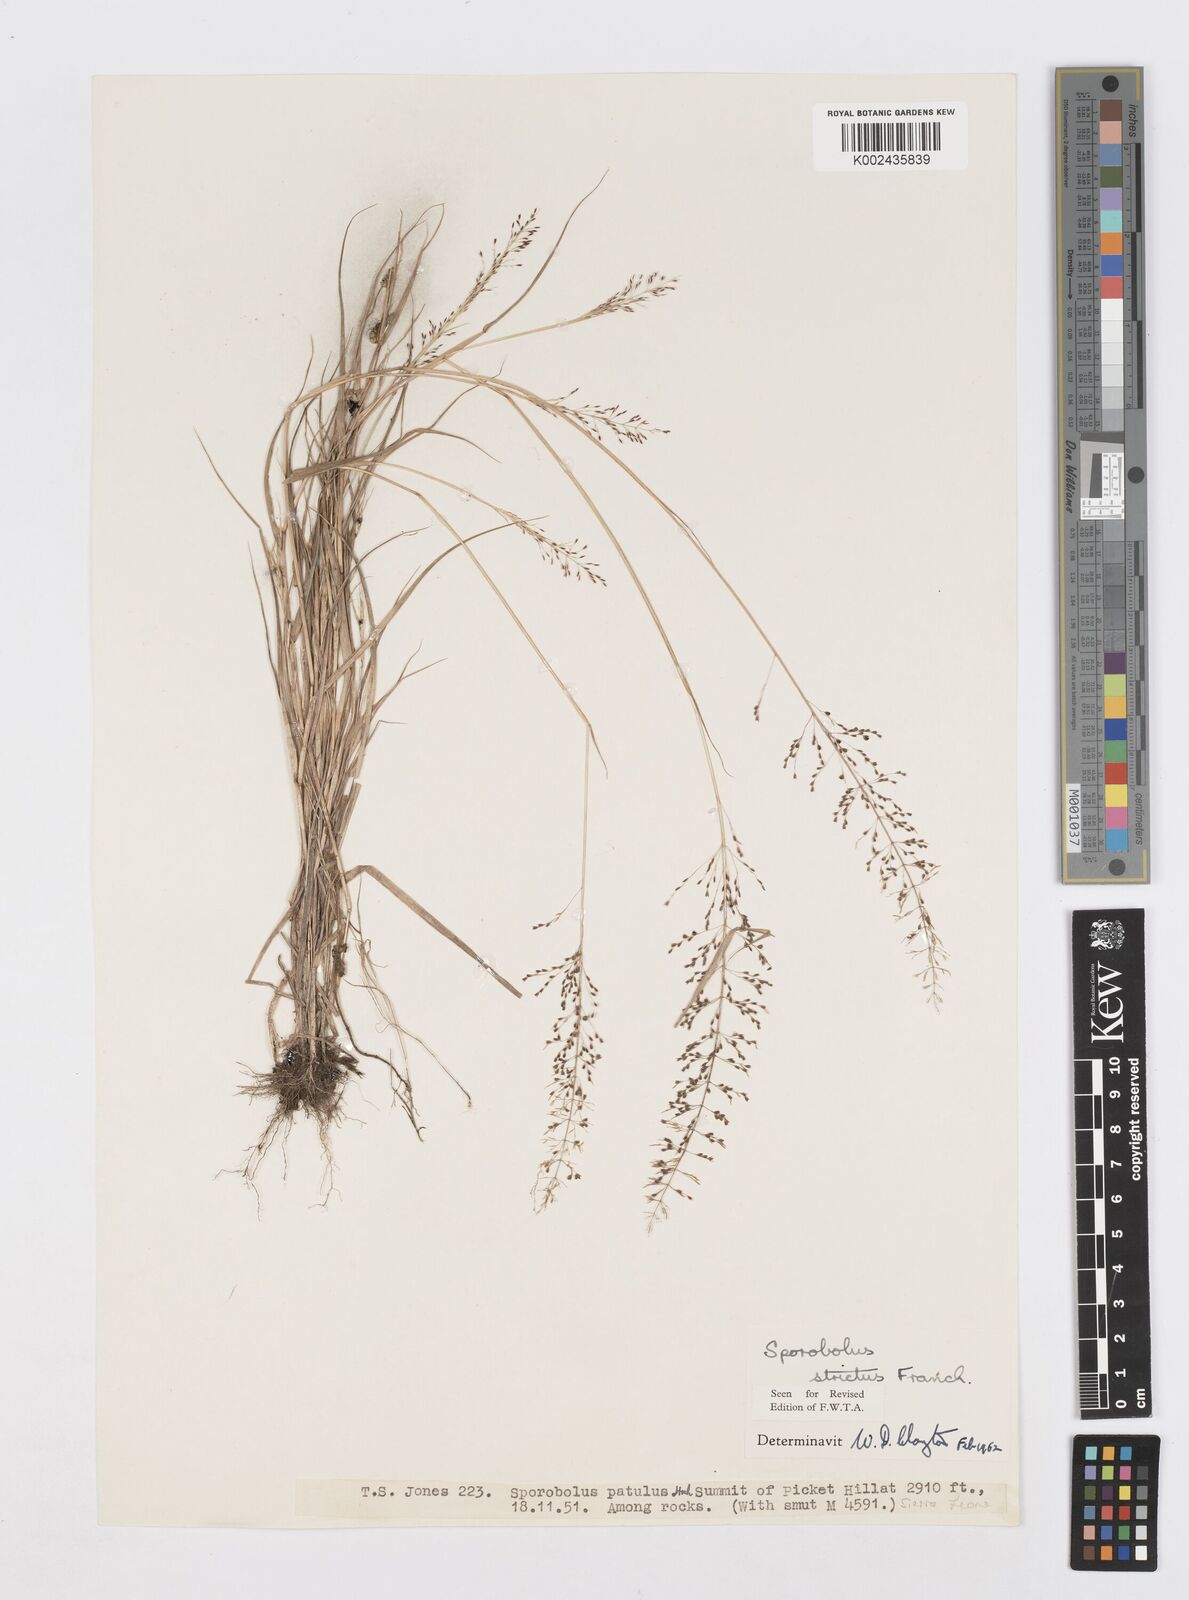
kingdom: Plantae
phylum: Tracheophyta
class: Liliopsida
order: Poales
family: Poaceae
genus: Sporobolus
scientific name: Sporobolus paniculatus
